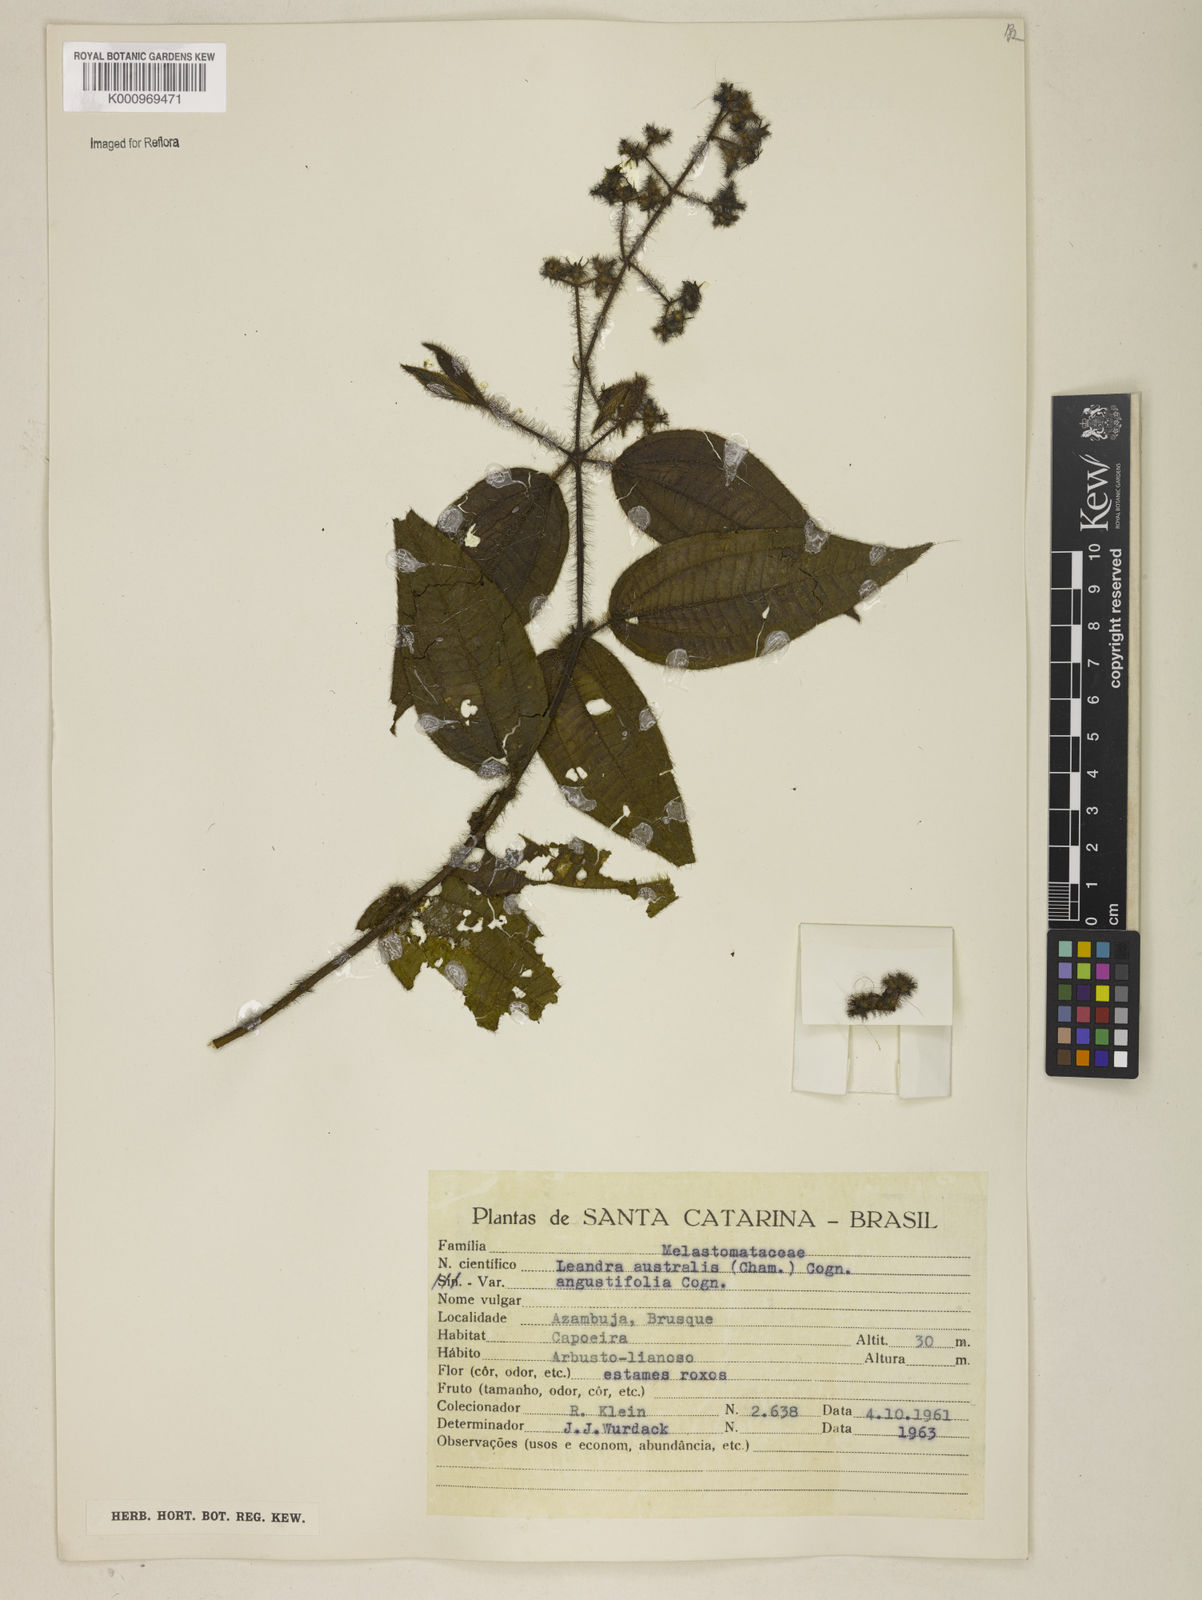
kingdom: Plantae
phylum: Tracheophyta
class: Magnoliopsida
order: Myrtales
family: Melastomataceae
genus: Miconia
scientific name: Miconia australis
